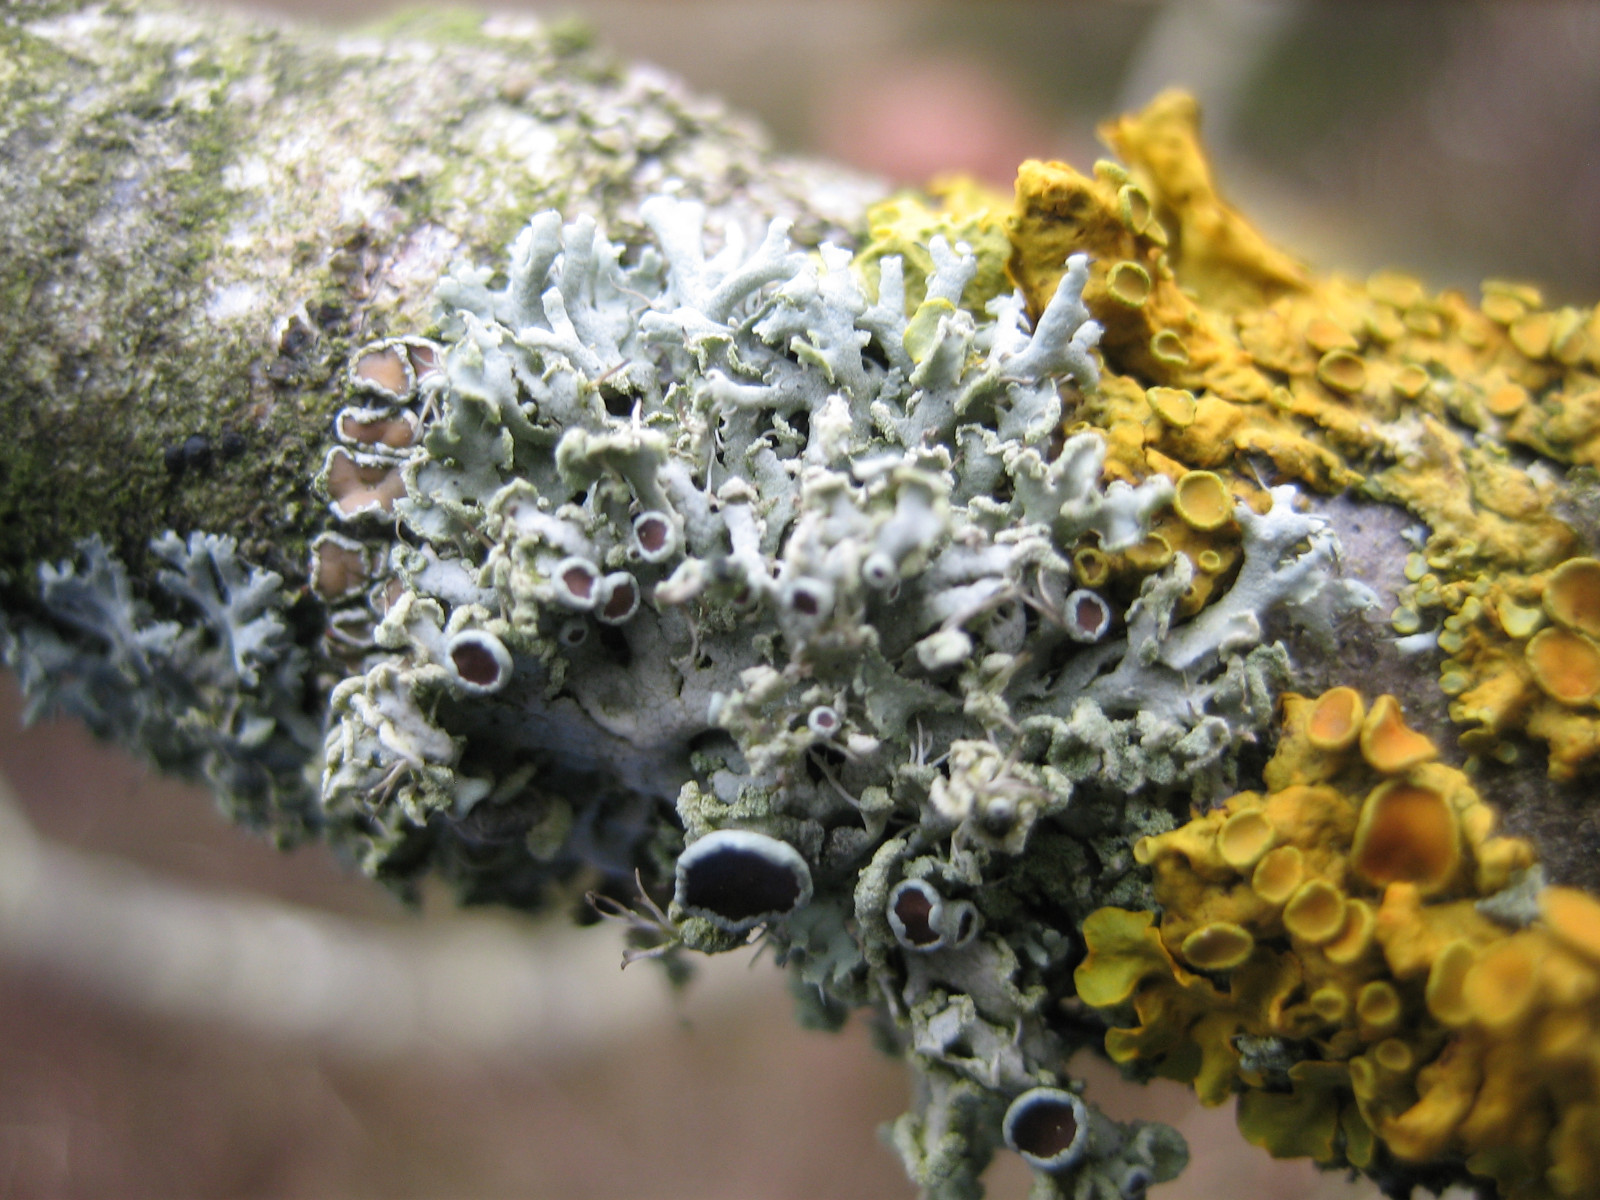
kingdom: Fungi
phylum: Ascomycota
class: Lecanoromycetes
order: Caliciales
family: Physciaceae
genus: Physcia
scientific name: Physcia tenella
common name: spæd rosetlav
